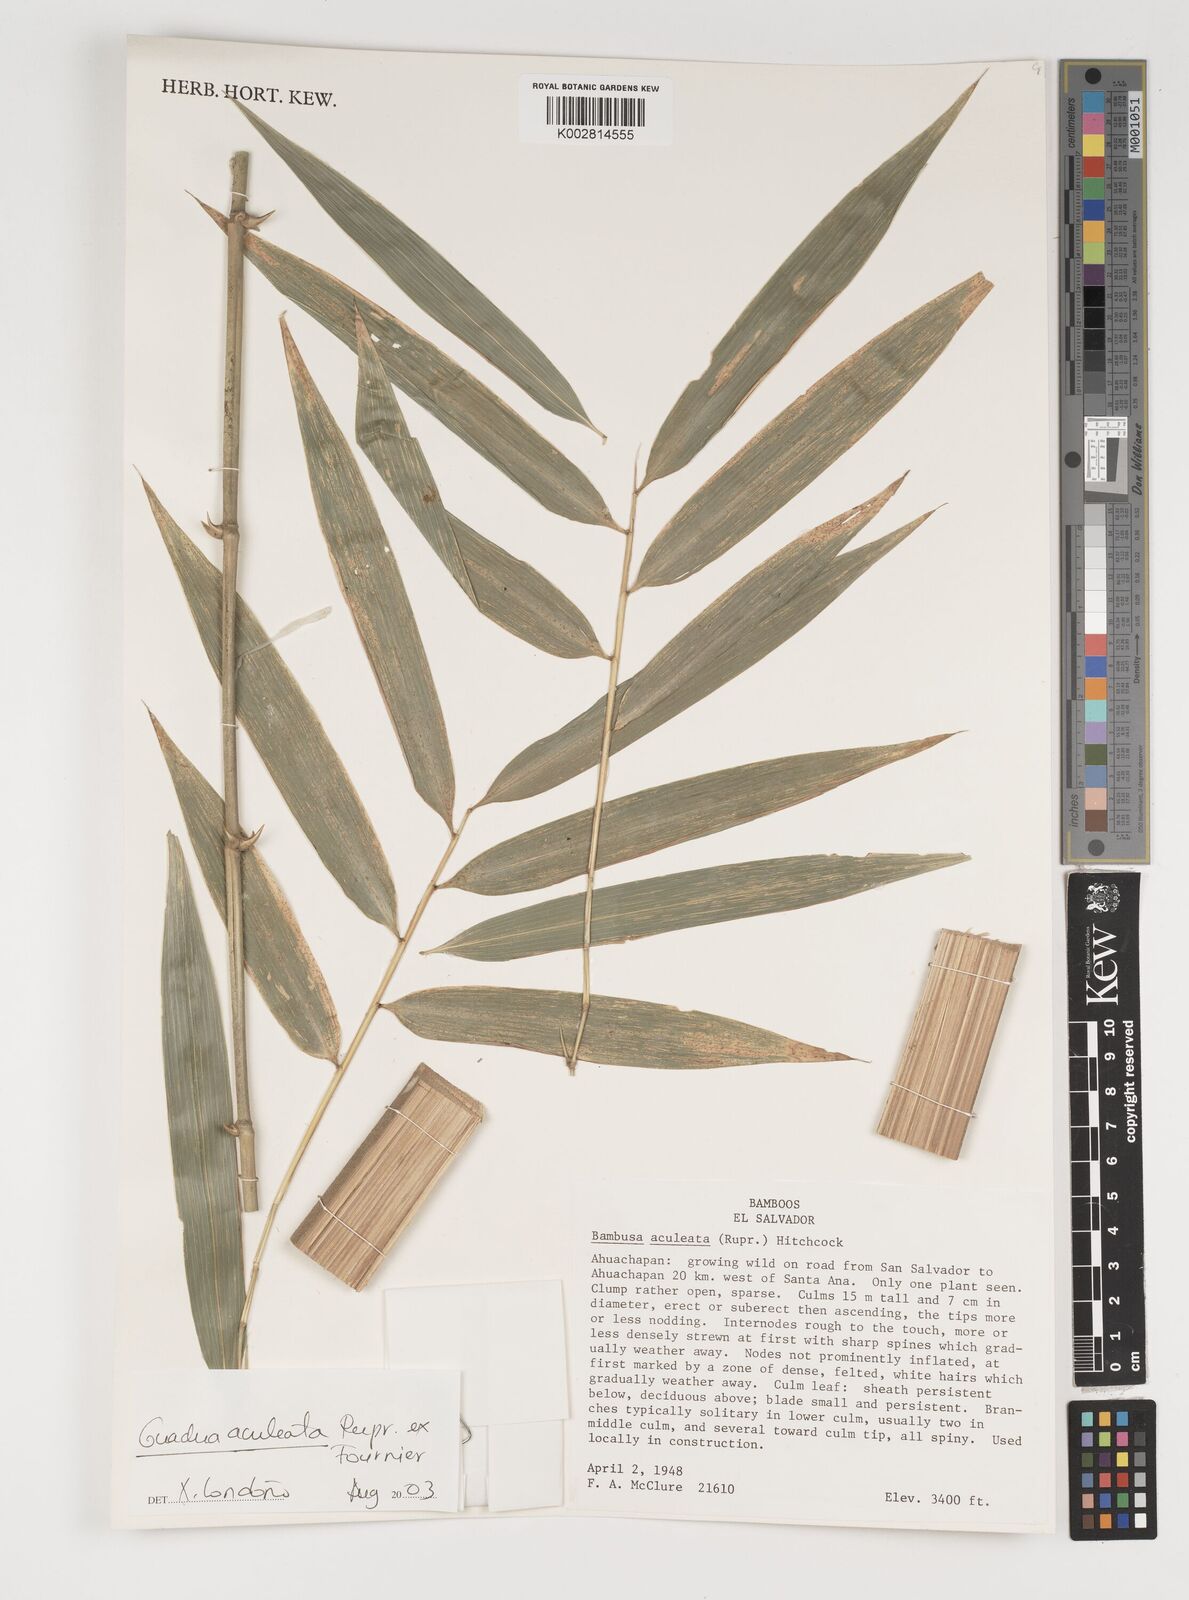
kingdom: Plantae
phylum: Tracheophyta
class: Liliopsida
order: Poales
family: Poaceae
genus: Guadua
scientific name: Guadua aculeata
